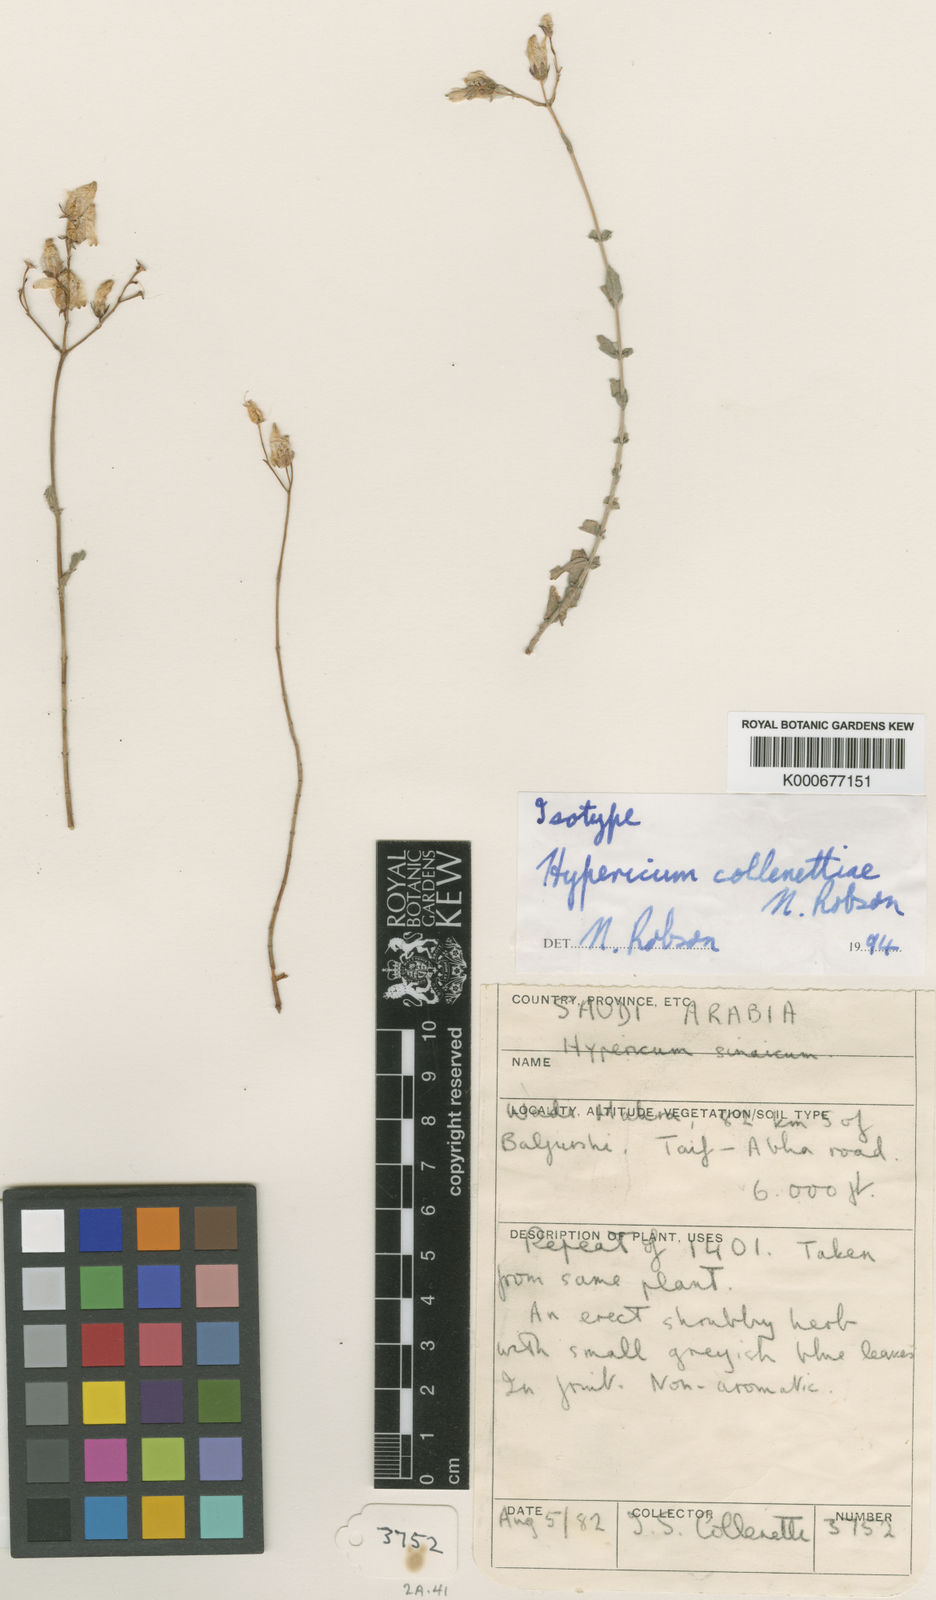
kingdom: Plantae
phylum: Tracheophyta
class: Magnoliopsida
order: Malpighiales
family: Hypericaceae
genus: Hypericum
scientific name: Hypericum collenetteae
